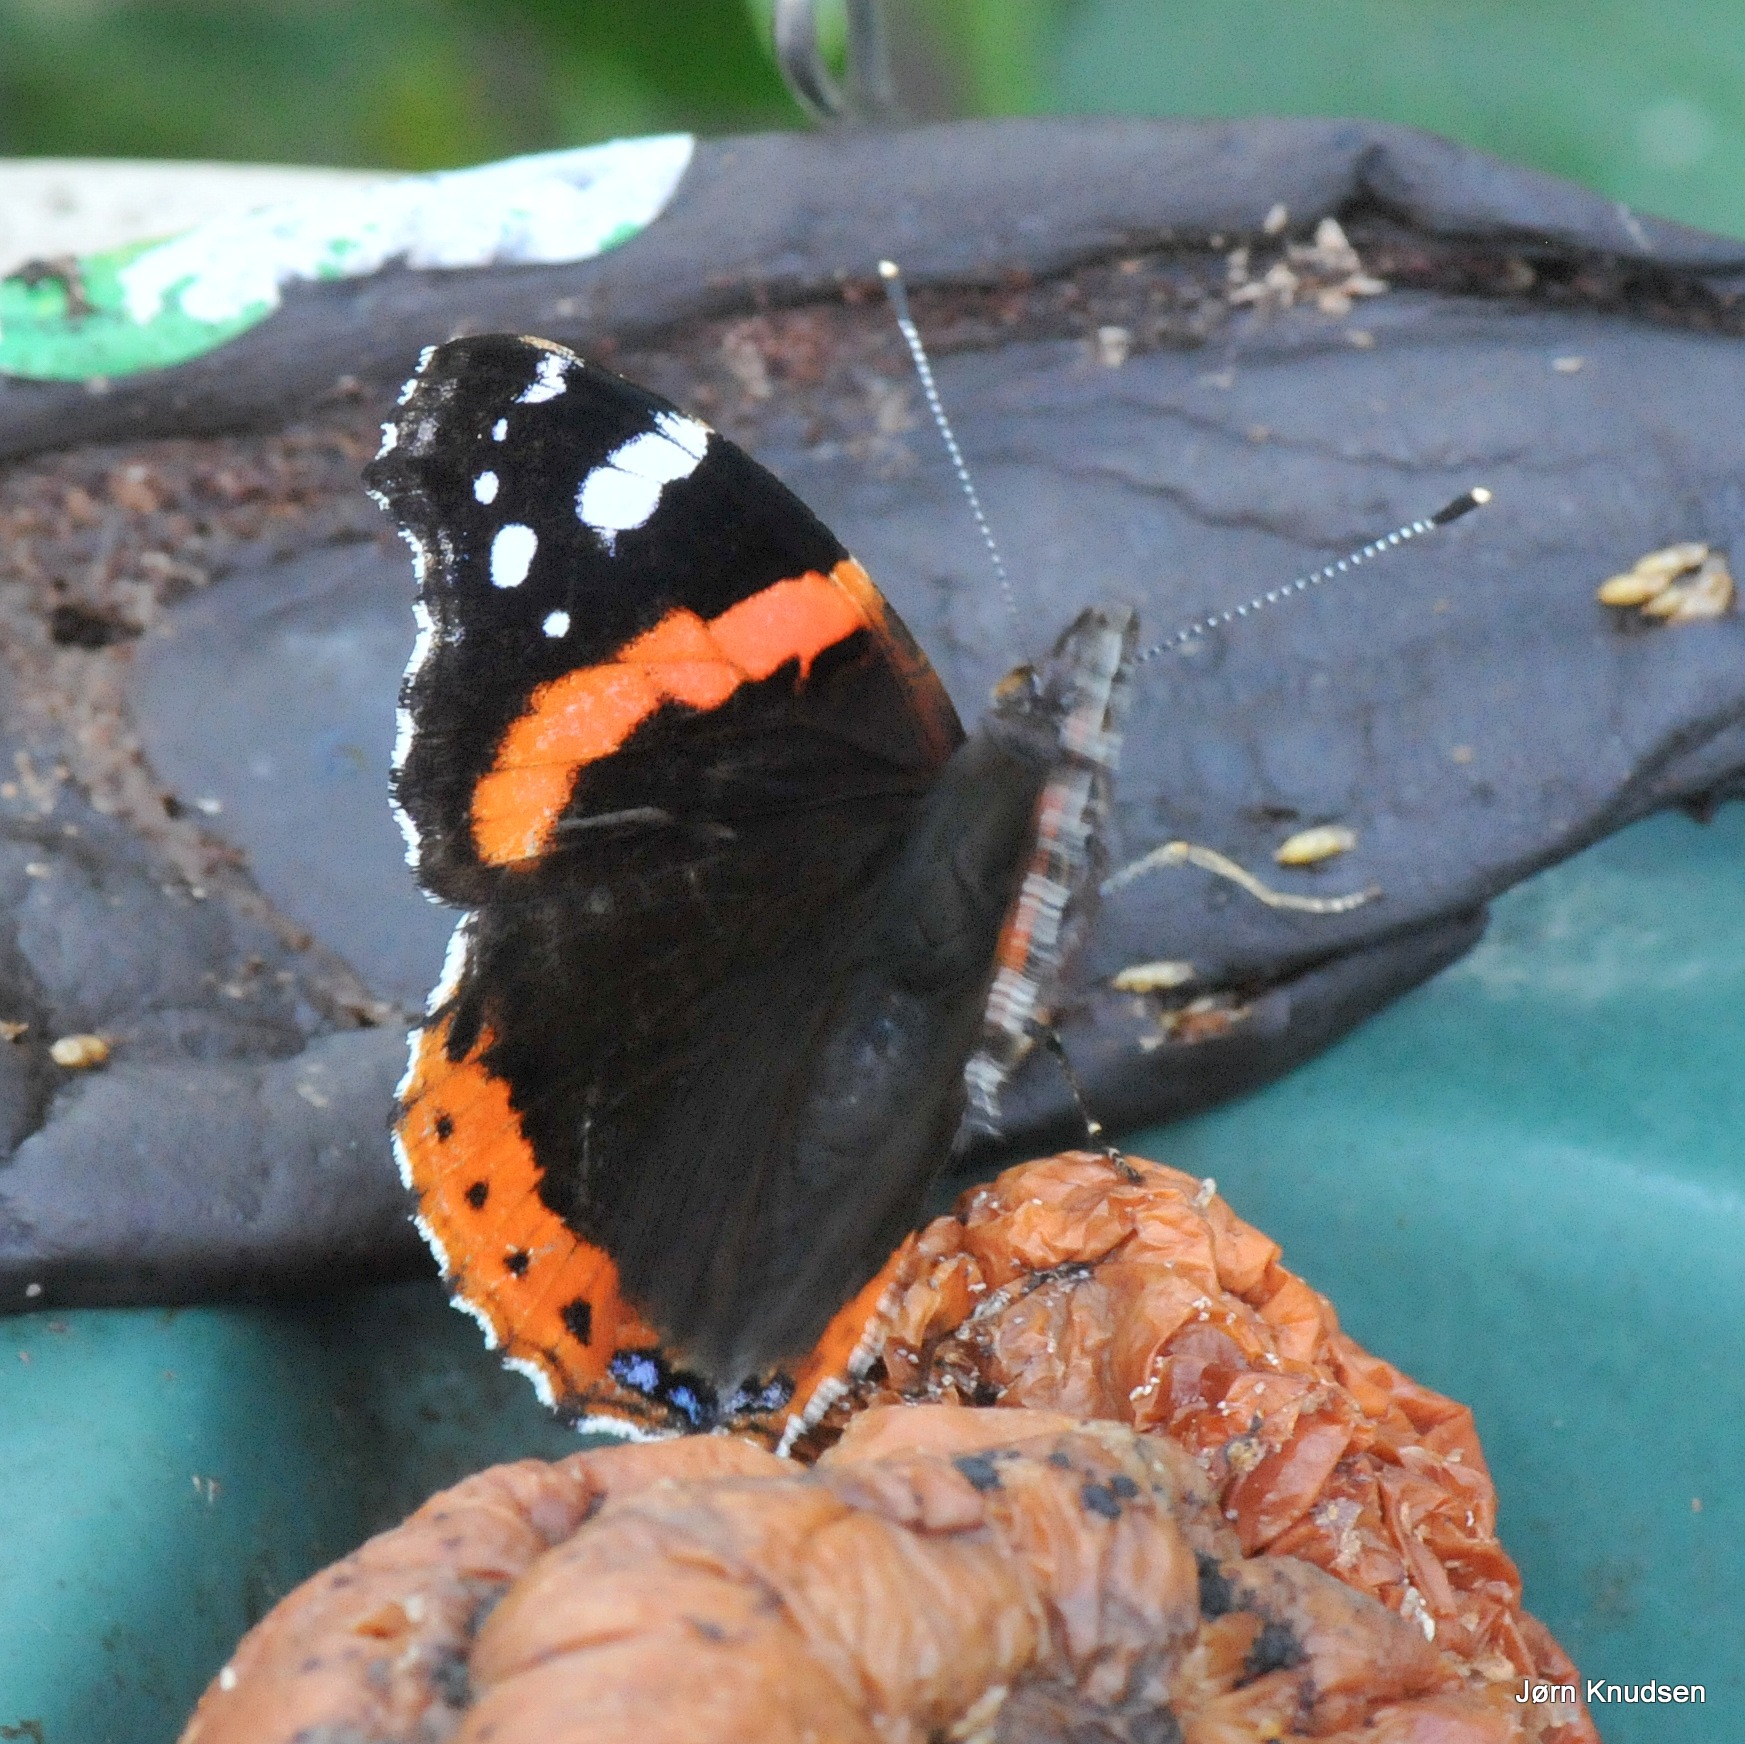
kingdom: Animalia
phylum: Arthropoda
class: Insecta
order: Lepidoptera
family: Nymphalidae
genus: Vanessa
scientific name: Vanessa atalanta
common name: Admiral
